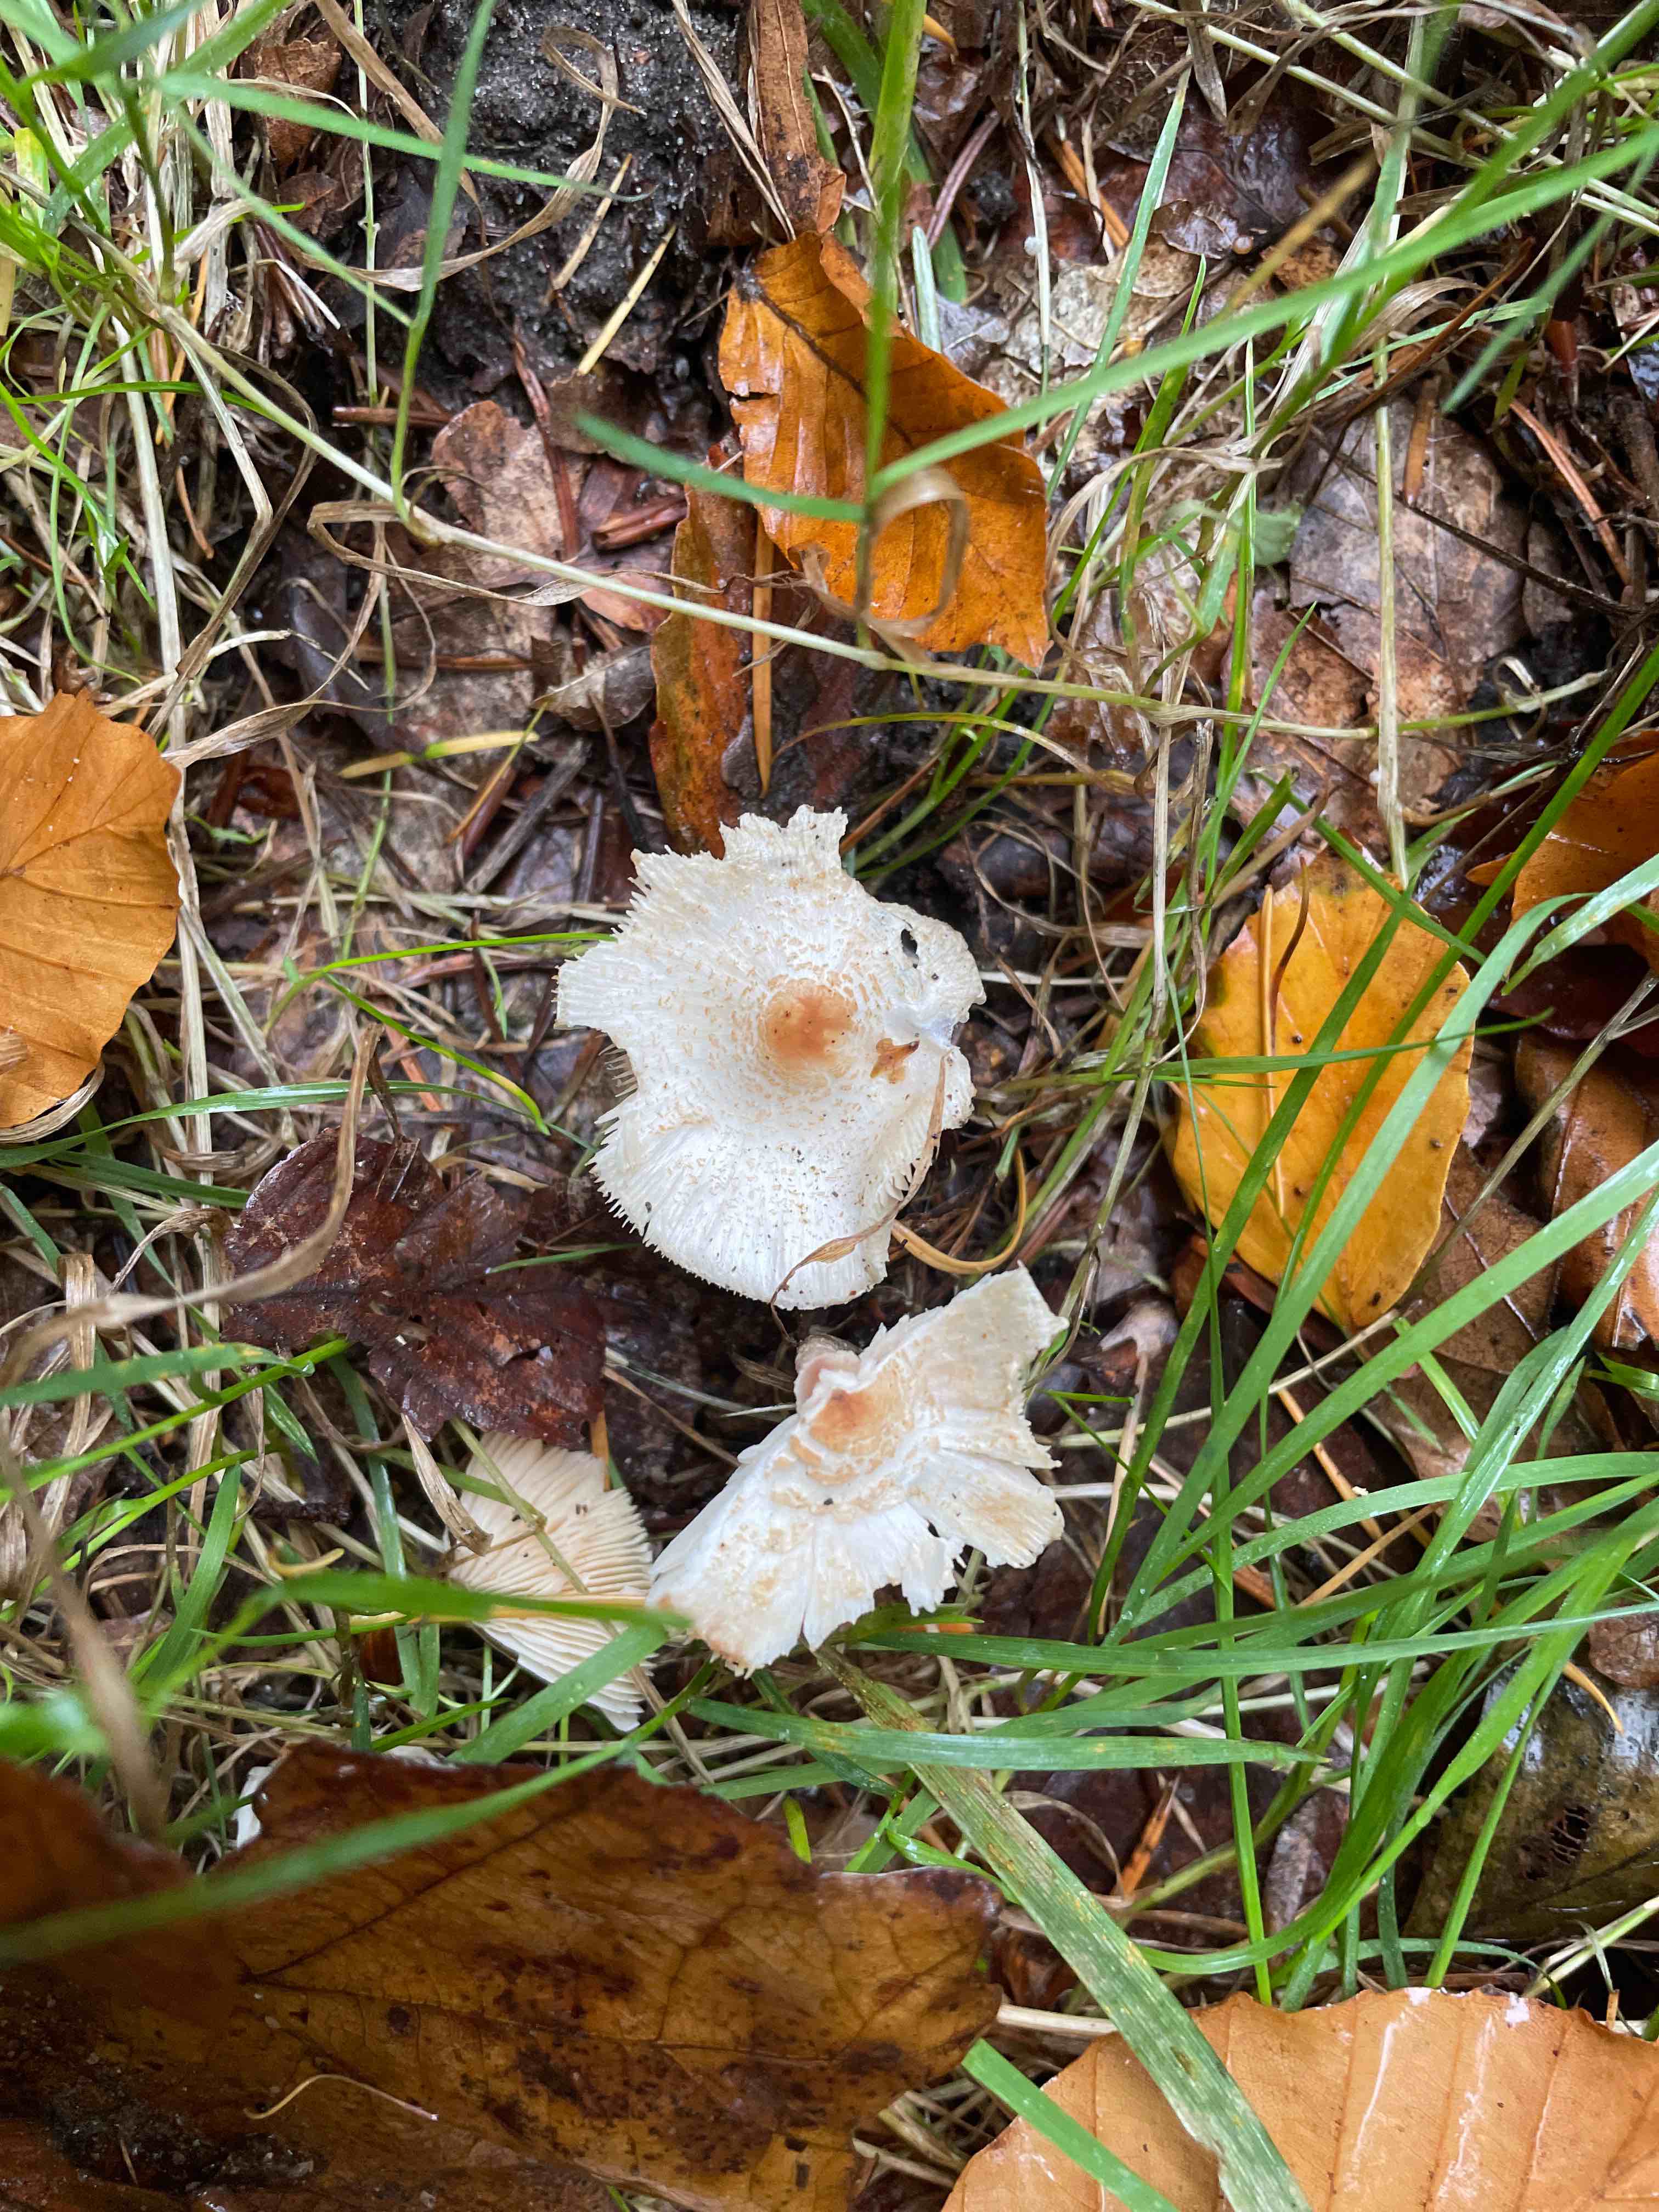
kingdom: Fungi
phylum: Basidiomycota
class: Agaricomycetes
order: Agaricales
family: Agaricaceae
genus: Lepiota
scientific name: Lepiota cristata
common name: stinkende parasolhat
